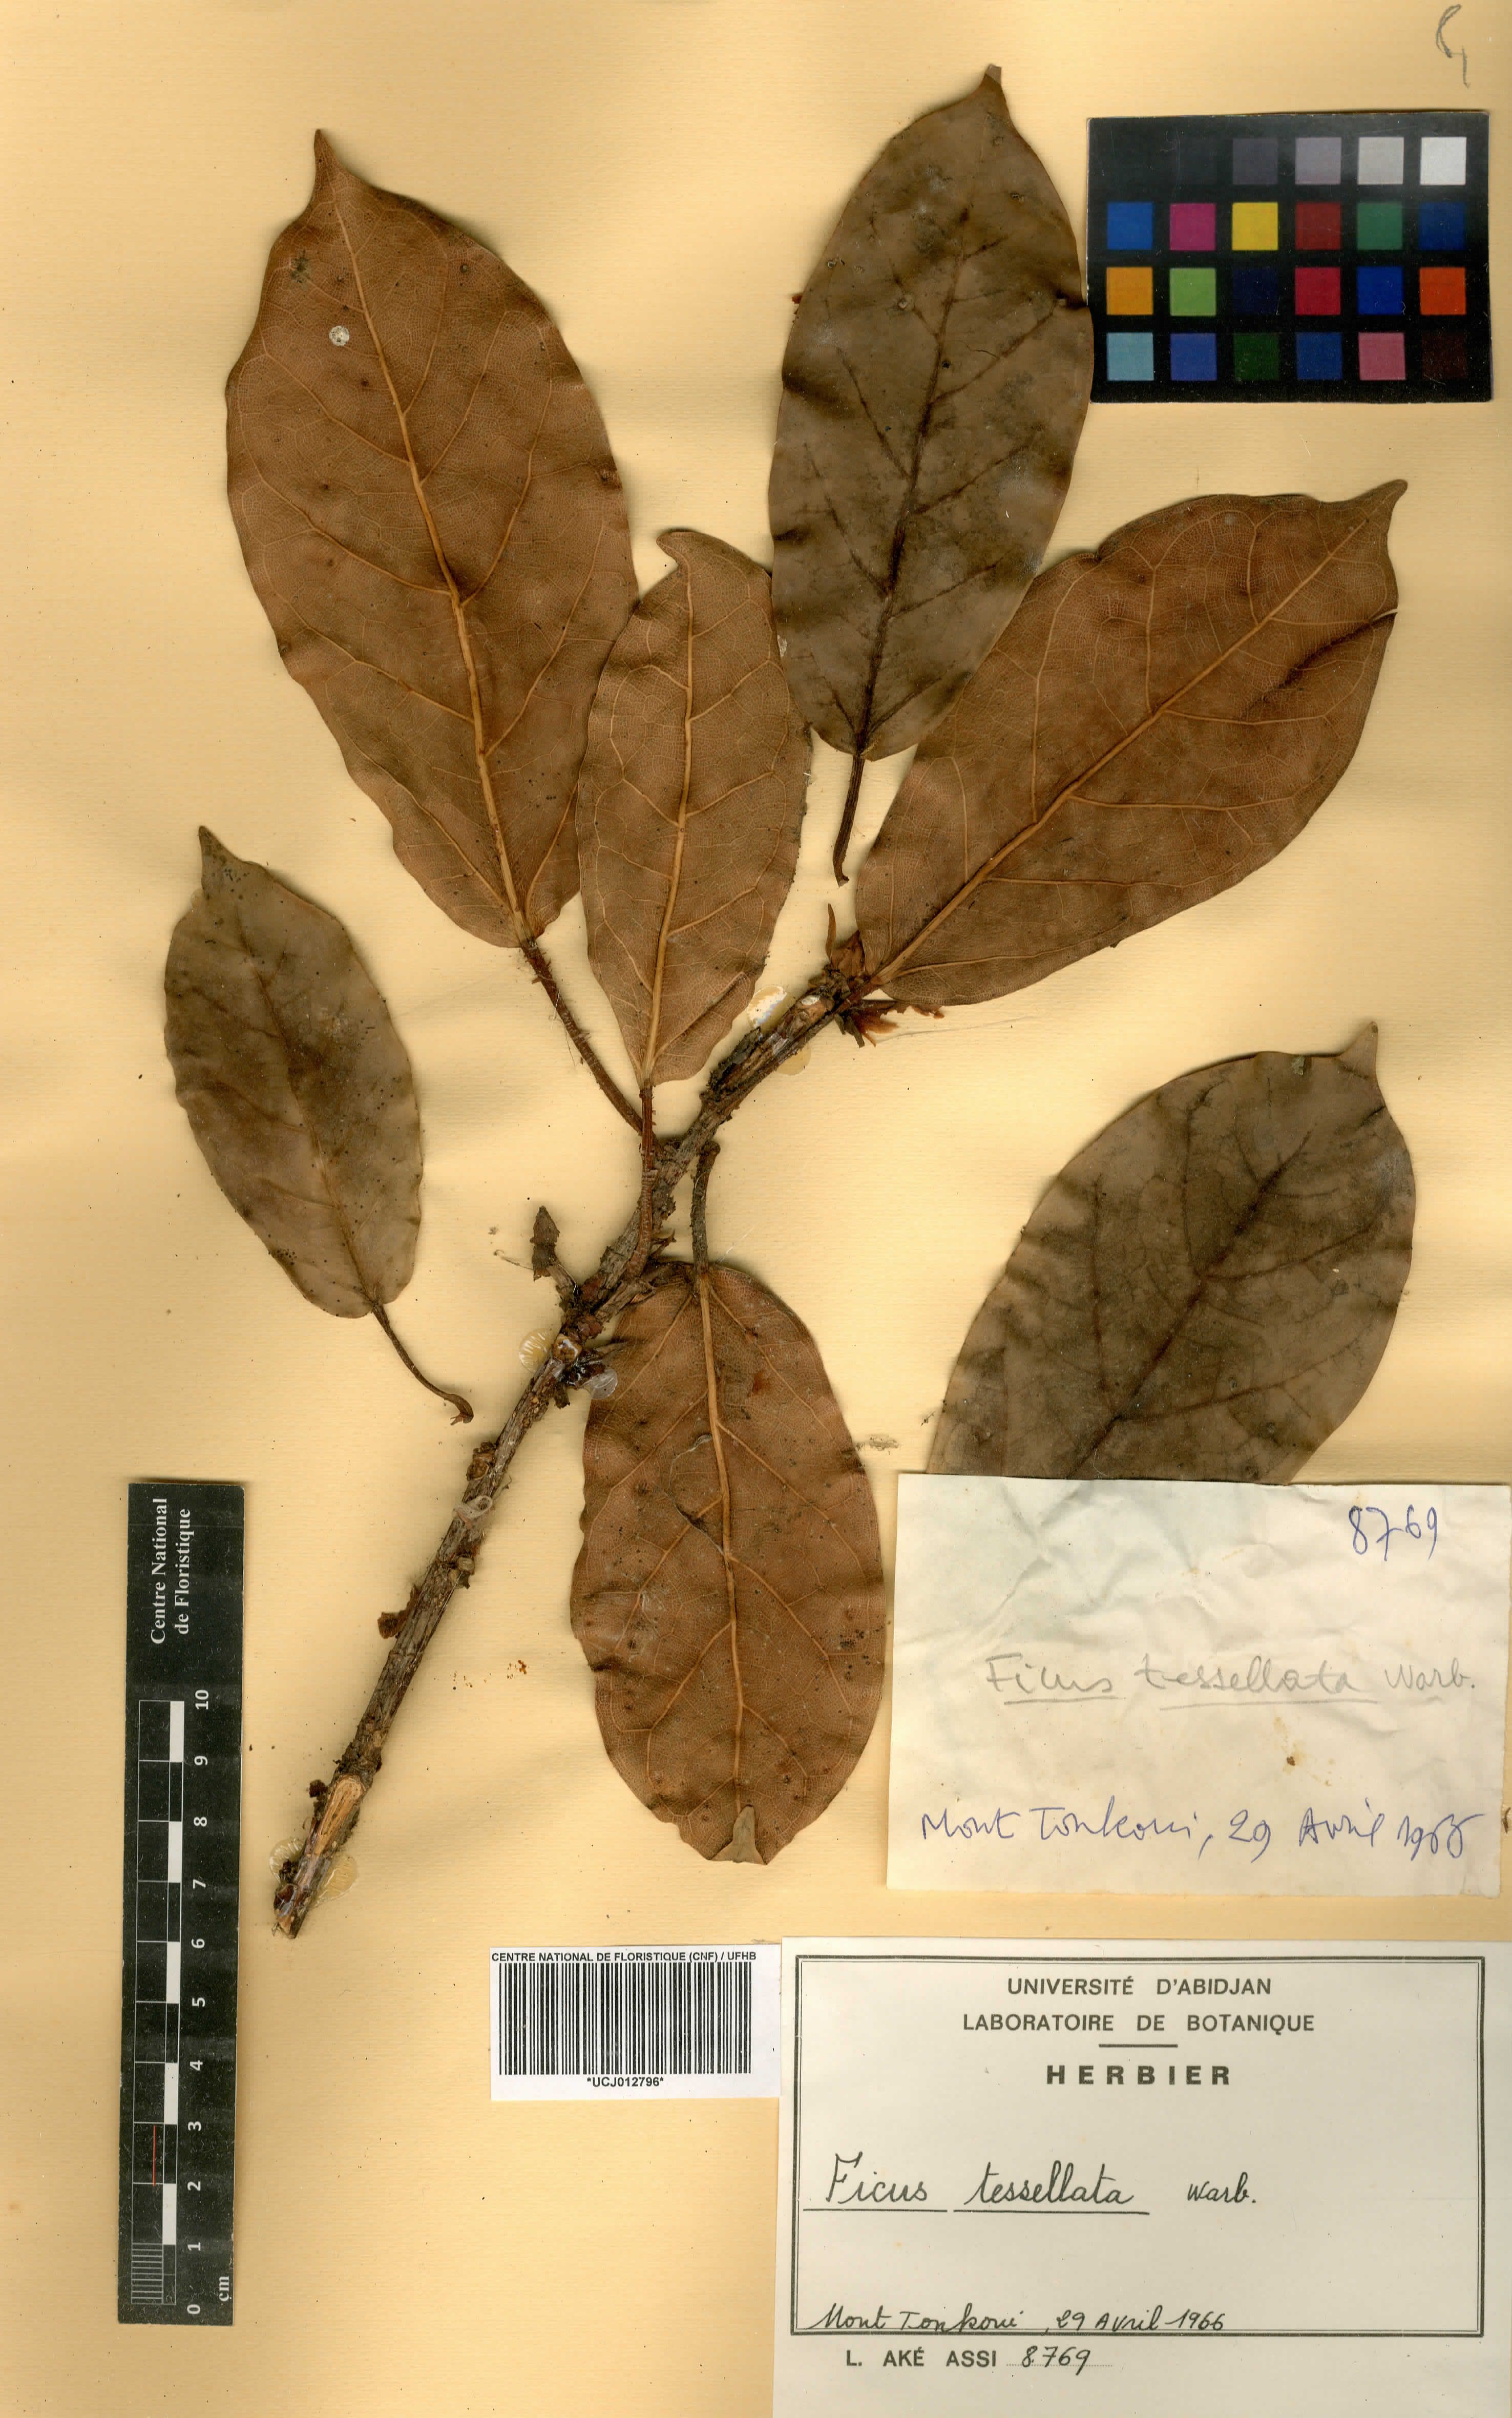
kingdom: Plantae
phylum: Tracheophyta
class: Magnoliopsida
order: Rosales
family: Moraceae
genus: Ficus
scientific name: Ficus tesselata
